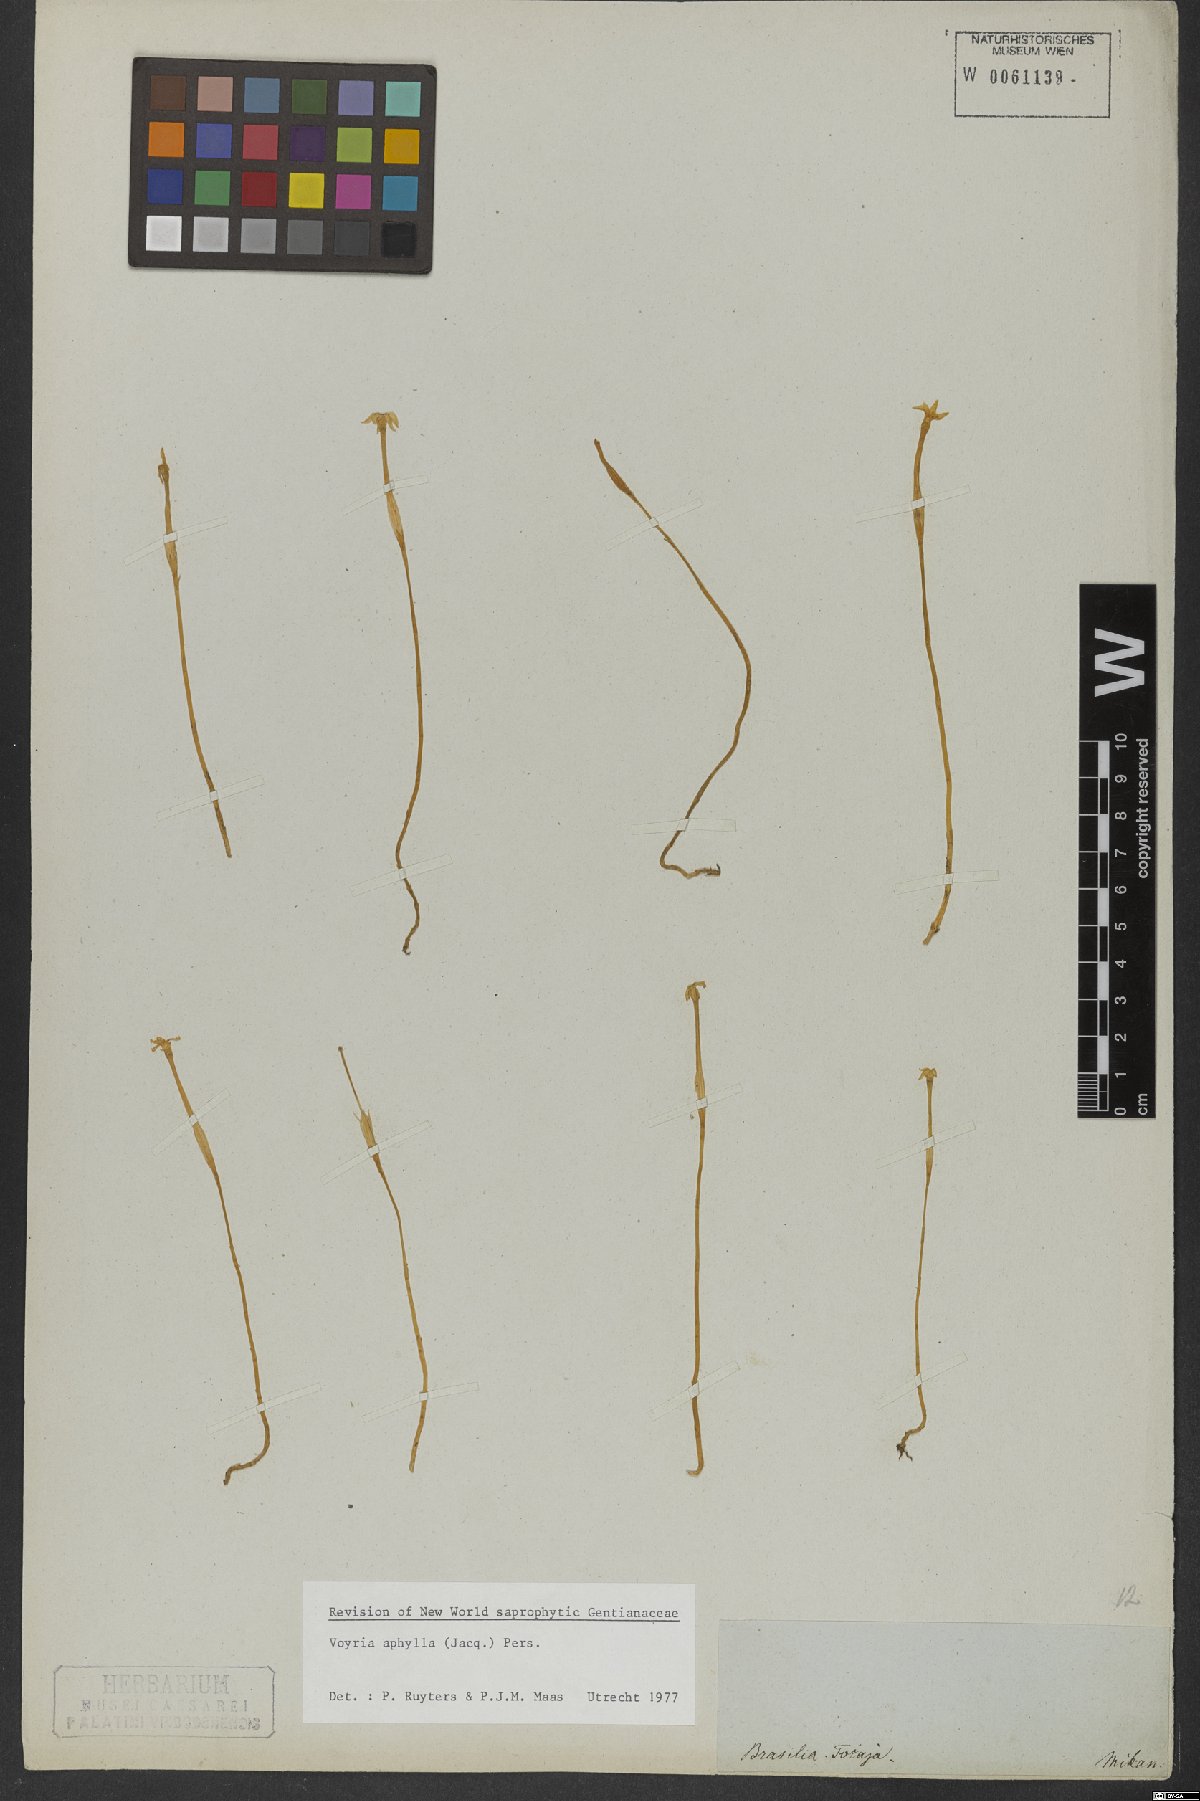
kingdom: Plantae
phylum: Tracheophyta
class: Magnoliopsida
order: Gentianales
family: Gentianaceae
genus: Voyria
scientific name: Voyria aphylla
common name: Leafless ghost plant
